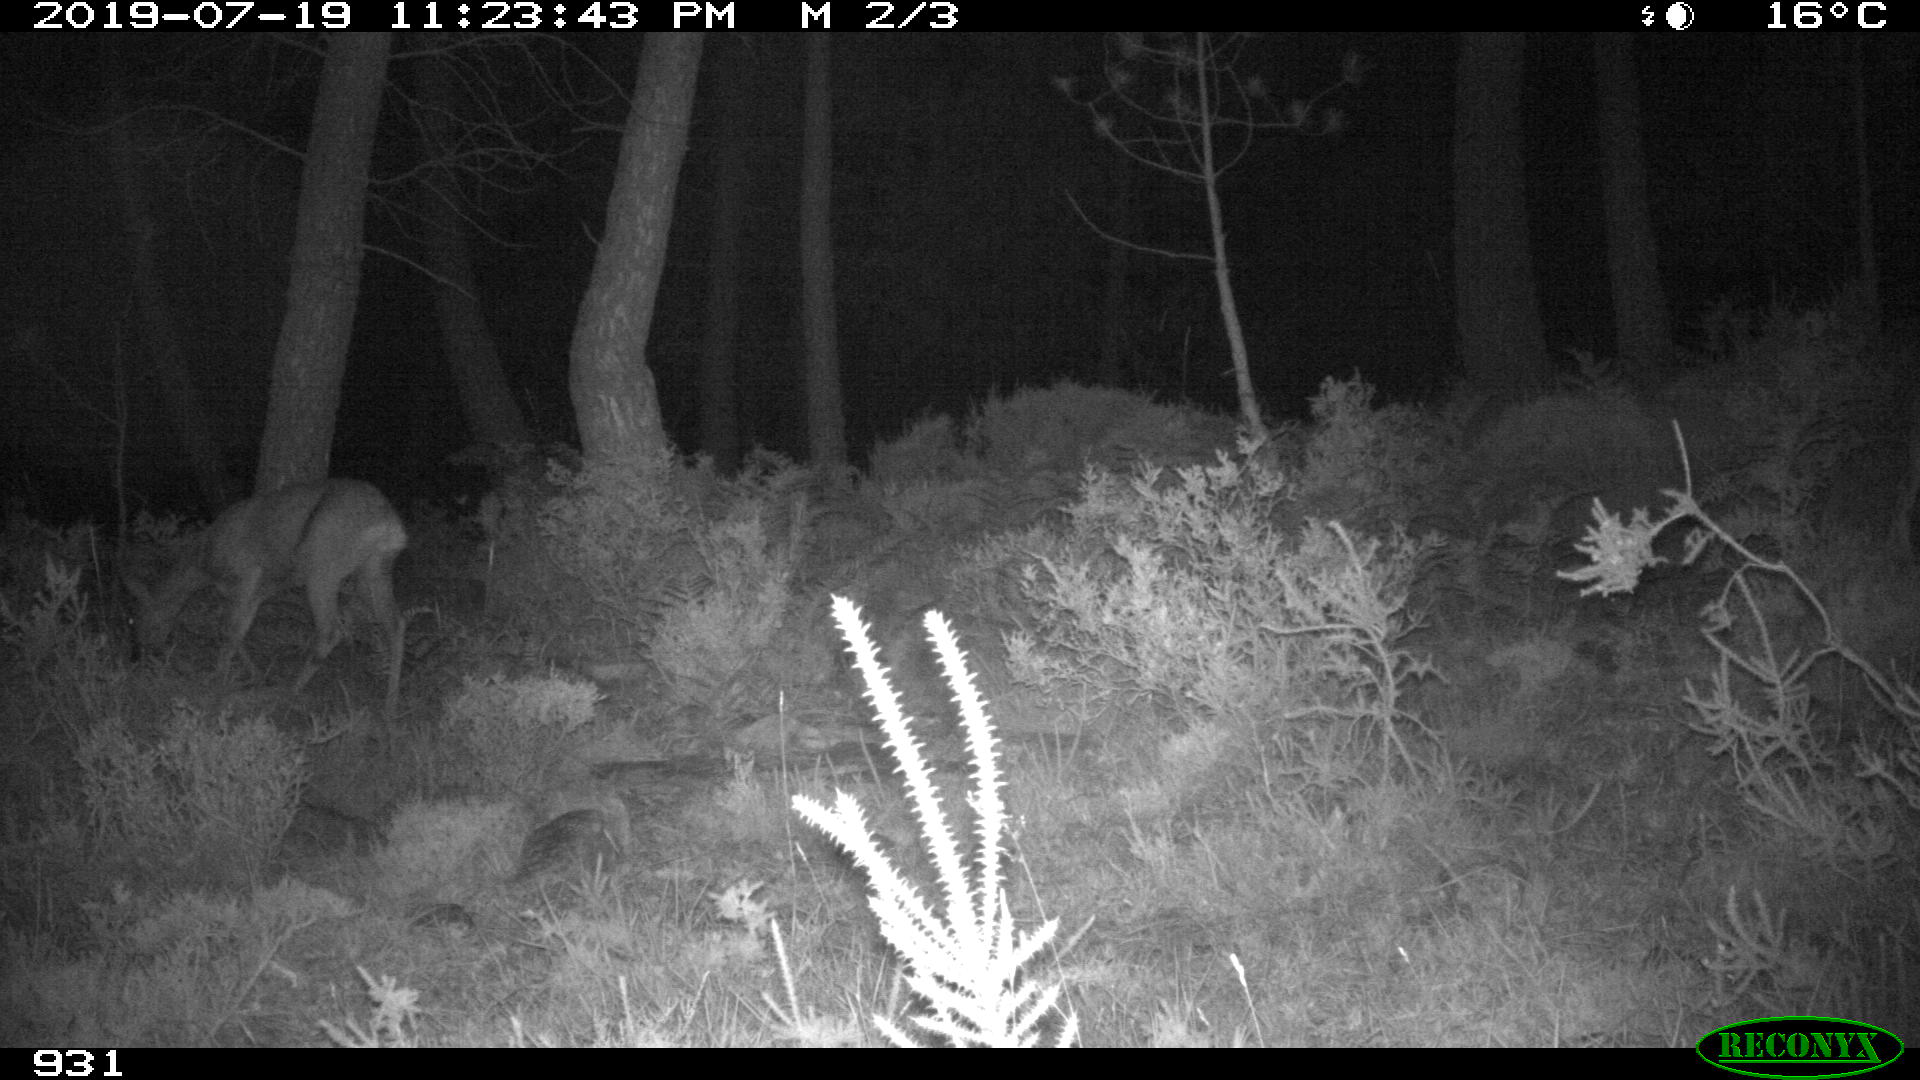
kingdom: Animalia
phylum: Chordata
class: Mammalia
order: Artiodactyla
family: Cervidae
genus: Capreolus
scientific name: Capreolus capreolus
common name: Western roe deer
